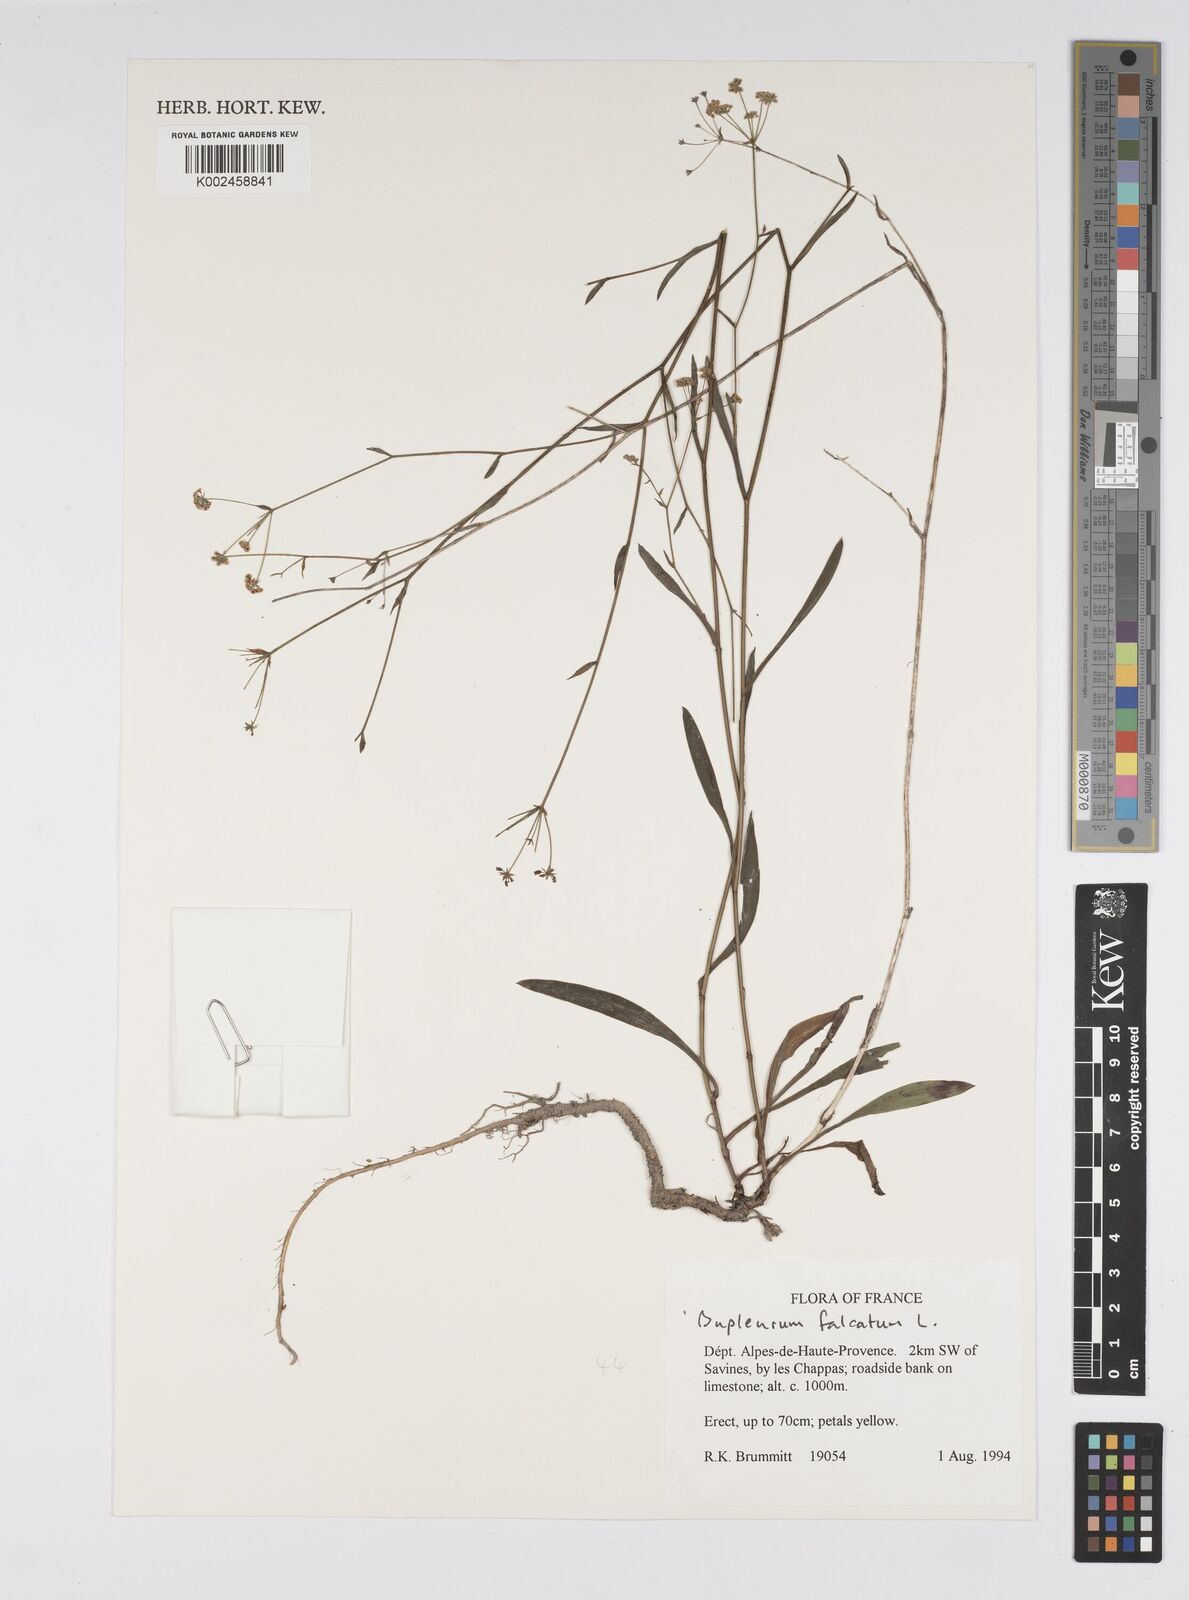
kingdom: Plantae
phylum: Tracheophyta
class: Magnoliopsida
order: Apiales
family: Apiaceae
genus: Bupleurum
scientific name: Bupleurum falcatum
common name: Sickle-leaved hare's-ear
